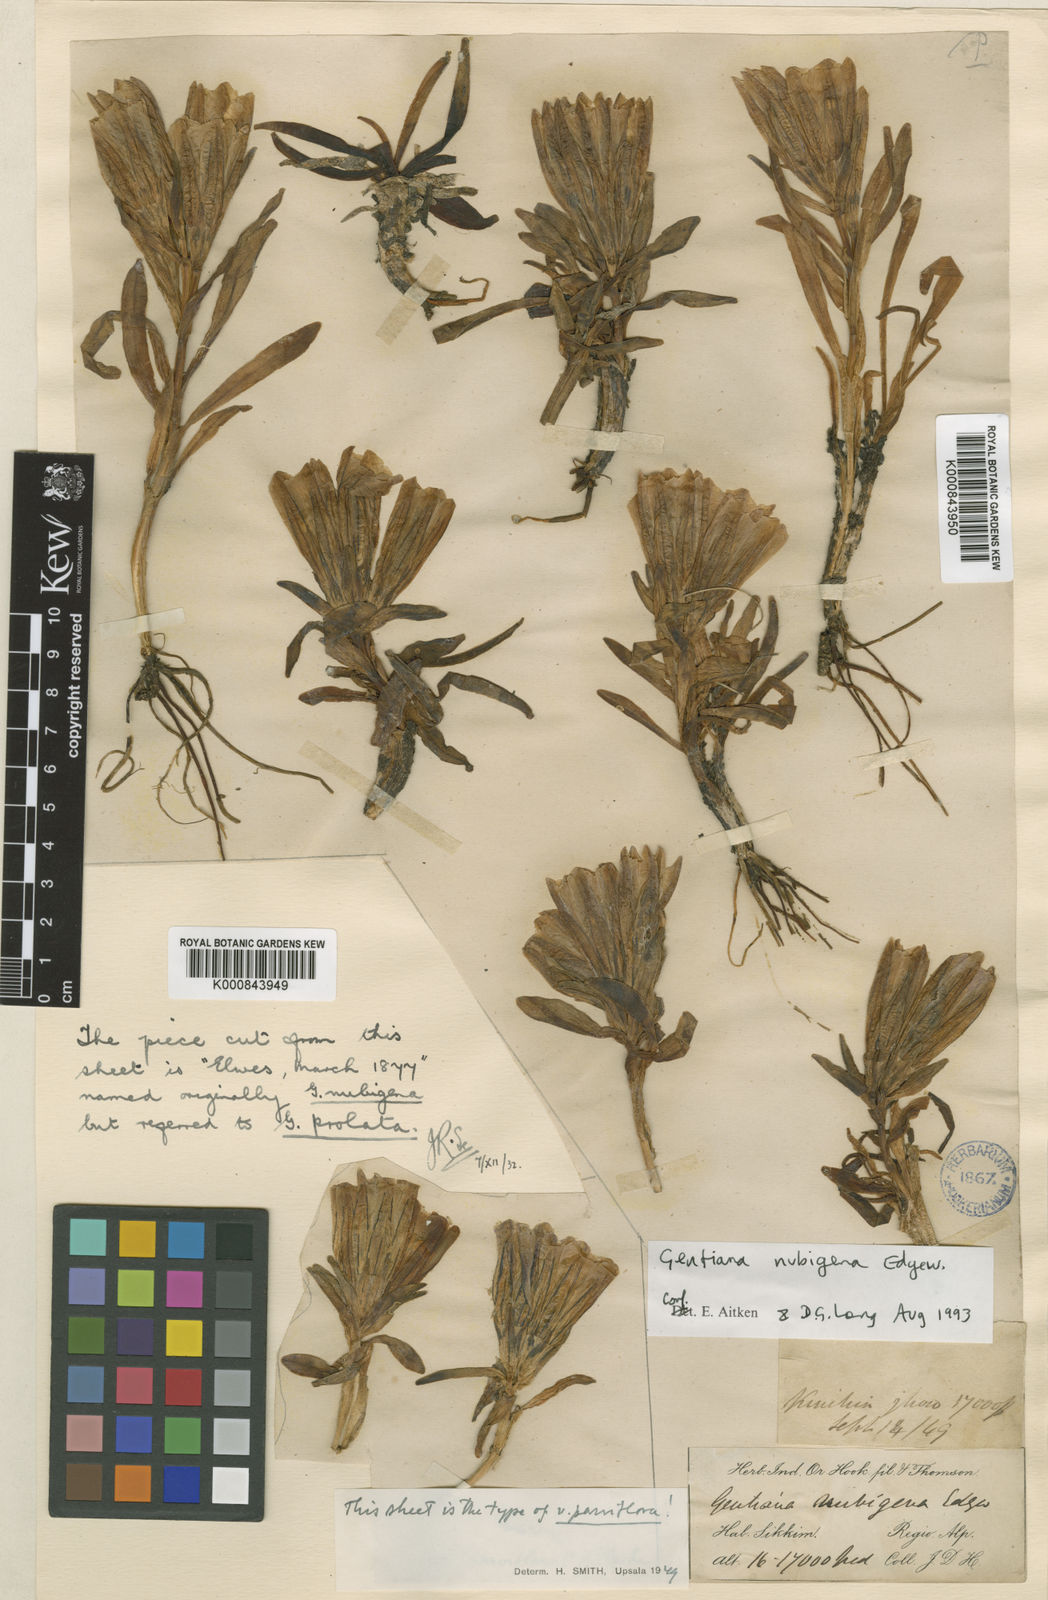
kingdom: Plantae
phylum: Tracheophyta
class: Magnoliopsida
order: Gentianales
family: Gentianaceae
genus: Gentiana
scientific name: Gentiana
